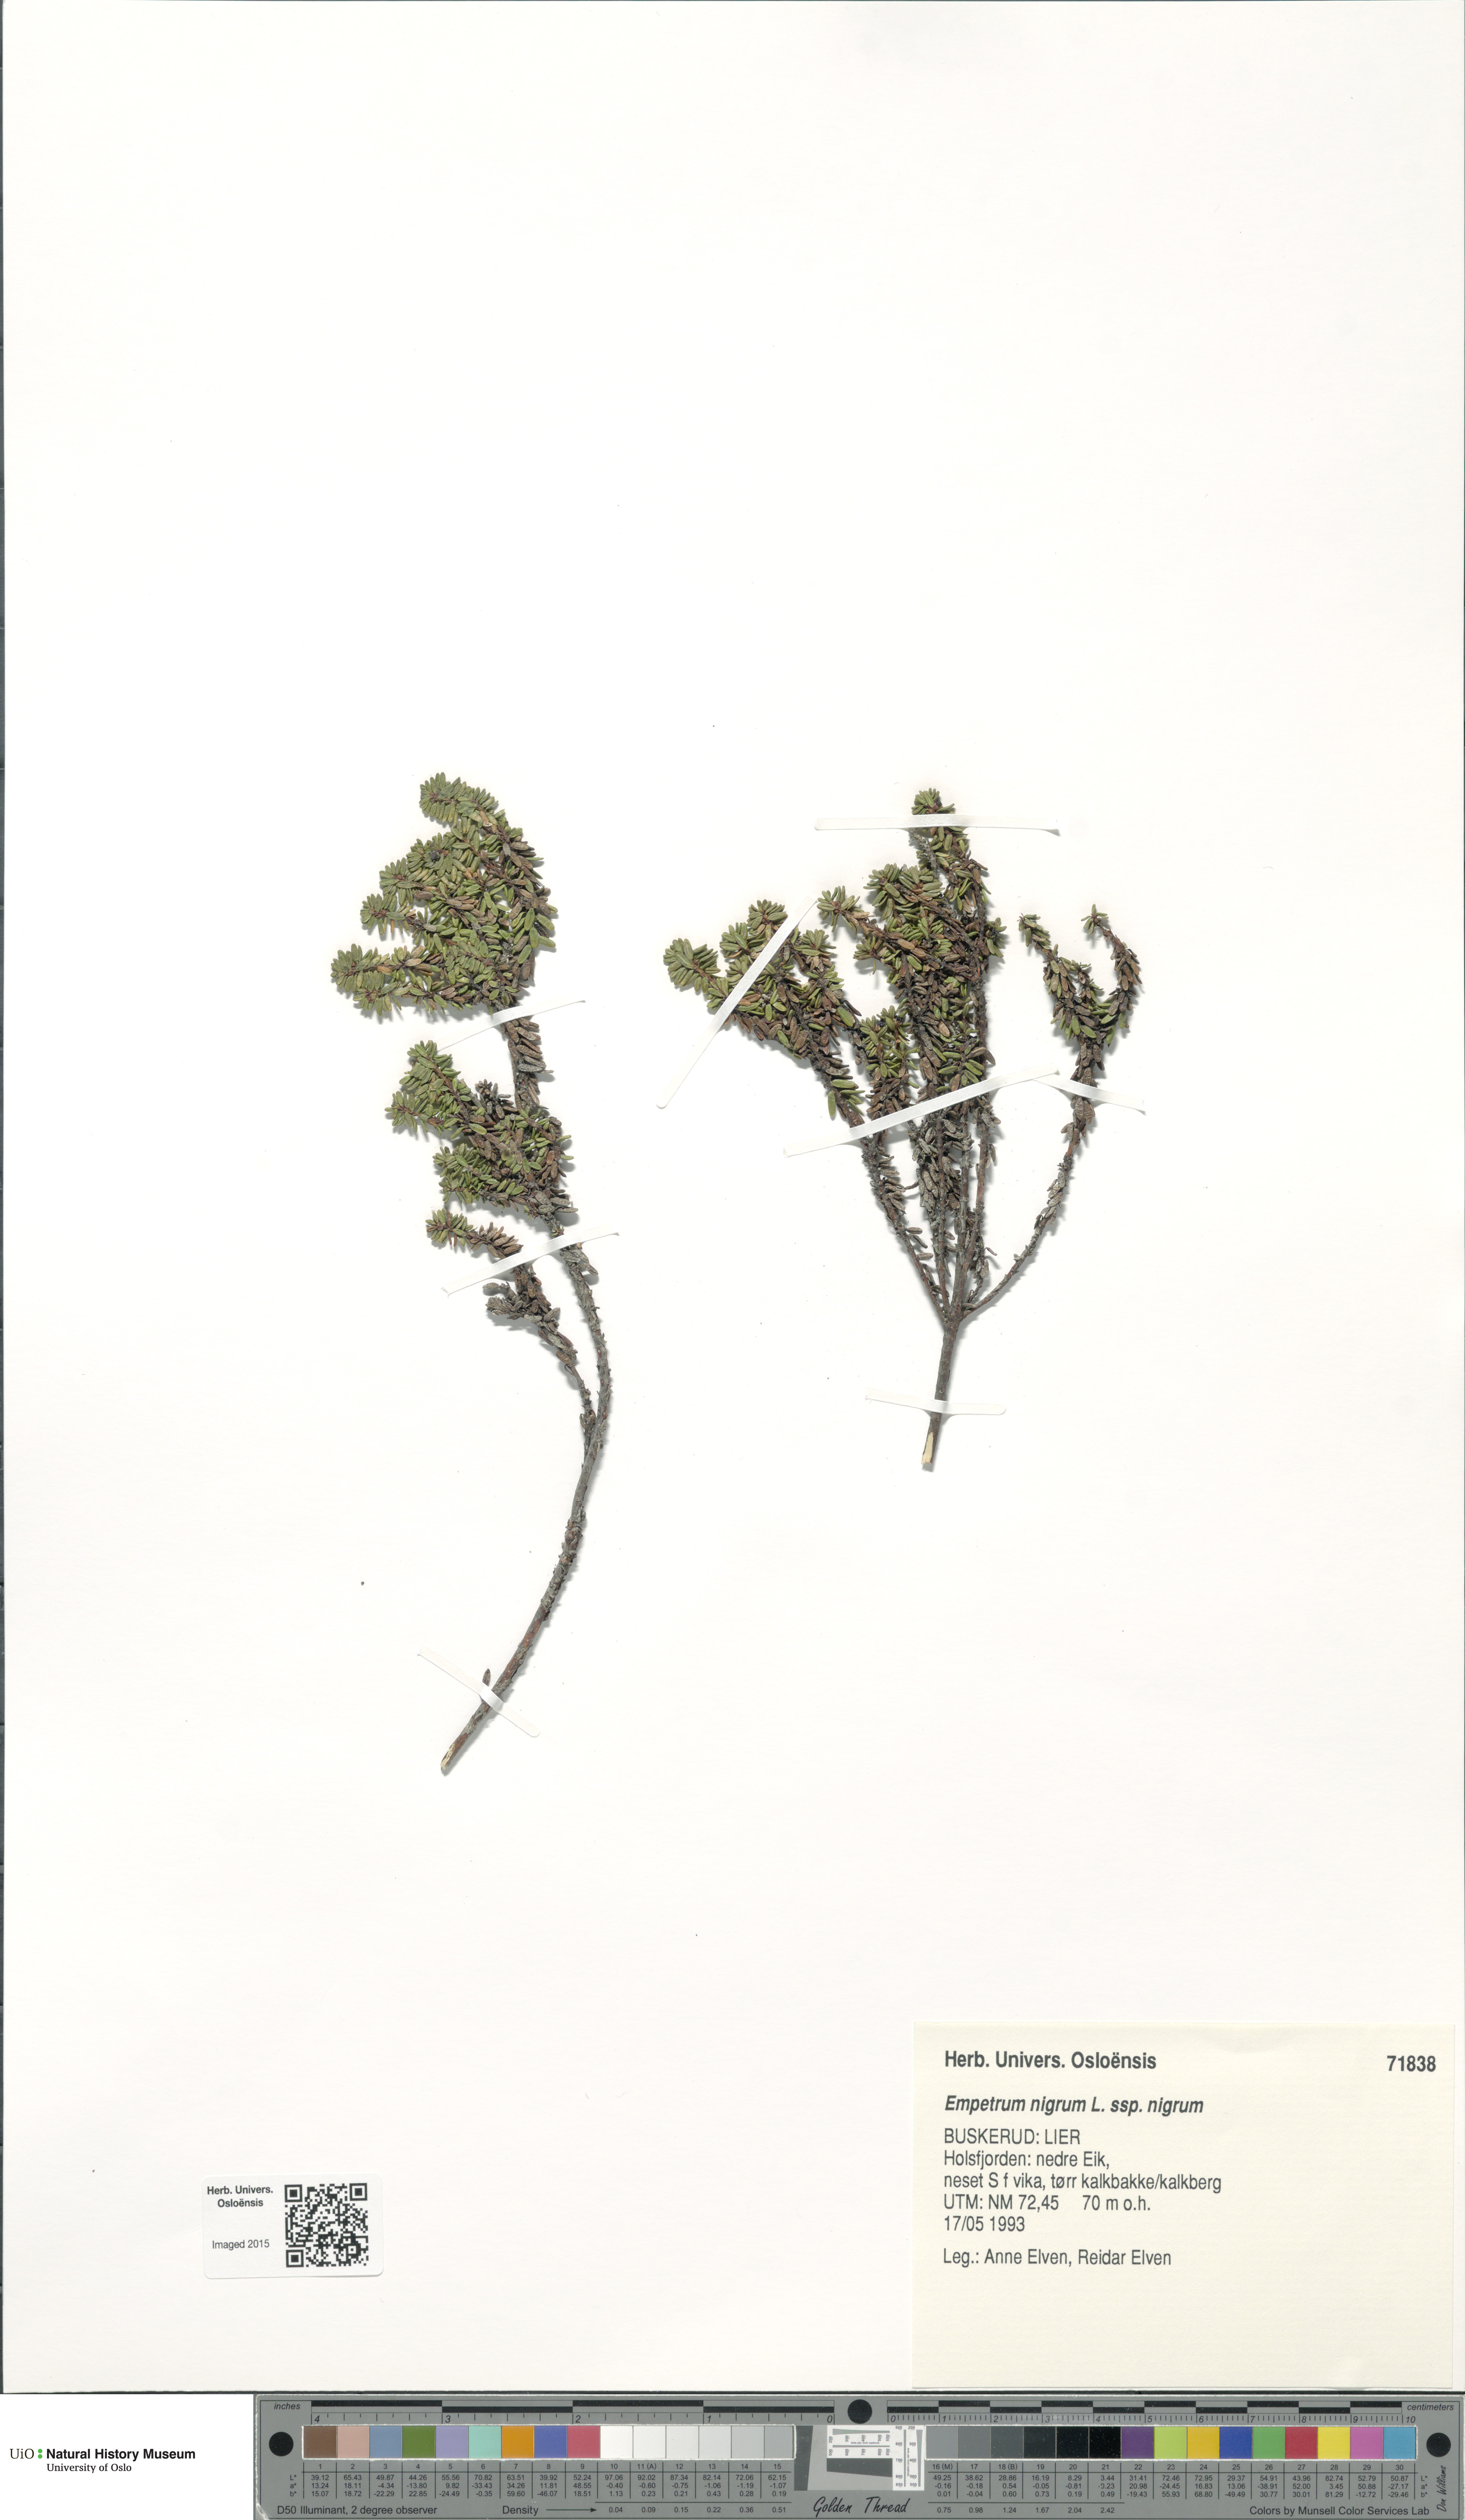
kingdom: Plantae
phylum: Tracheophyta
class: Magnoliopsida
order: Ericales
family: Ericaceae
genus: Empetrum
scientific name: Empetrum nigrum
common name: Black crowberry
